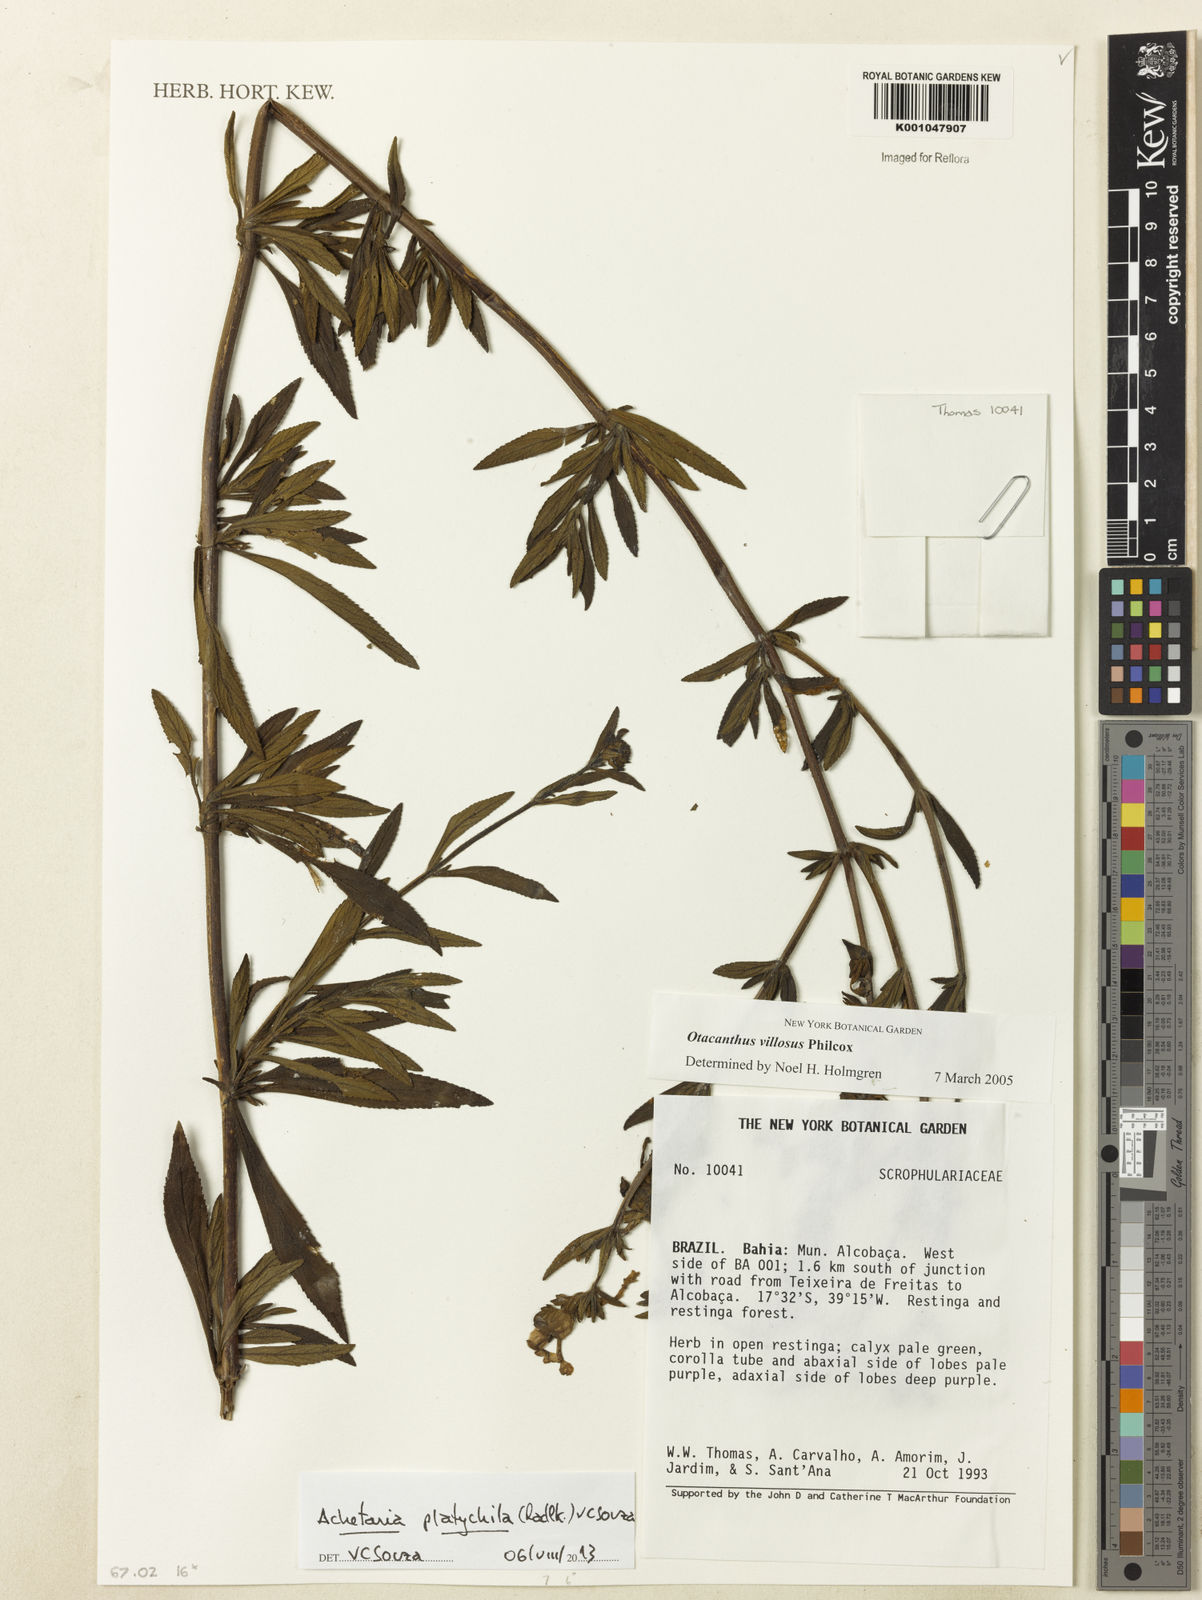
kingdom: Plantae
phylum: Tracheophyta
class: Magnoliopsida
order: Lamiales
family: Plantaginaceae
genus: Matourea
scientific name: Matourea platychila
